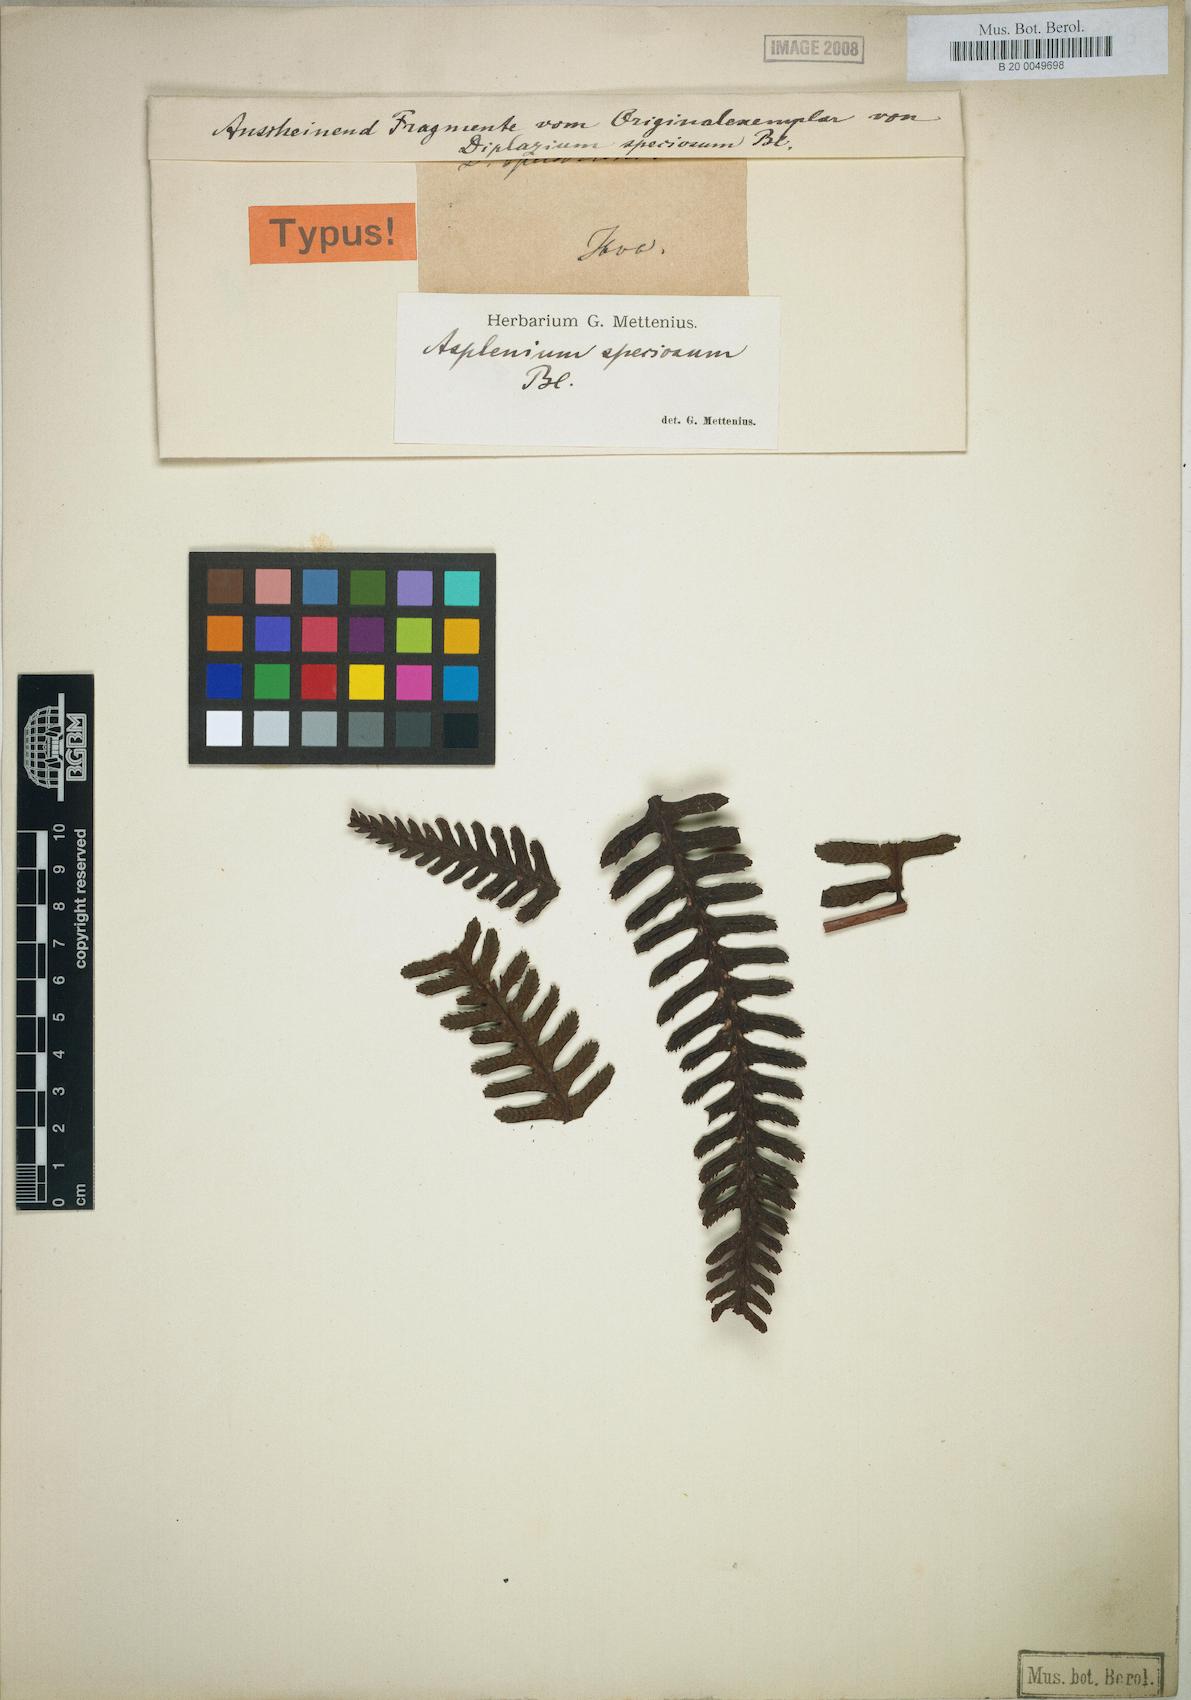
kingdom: Plantae
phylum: Tracheophyta
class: Polypodiopsida
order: Polypodiales
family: Athyriaceae
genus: Diplazium
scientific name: Diplazium speciosum
